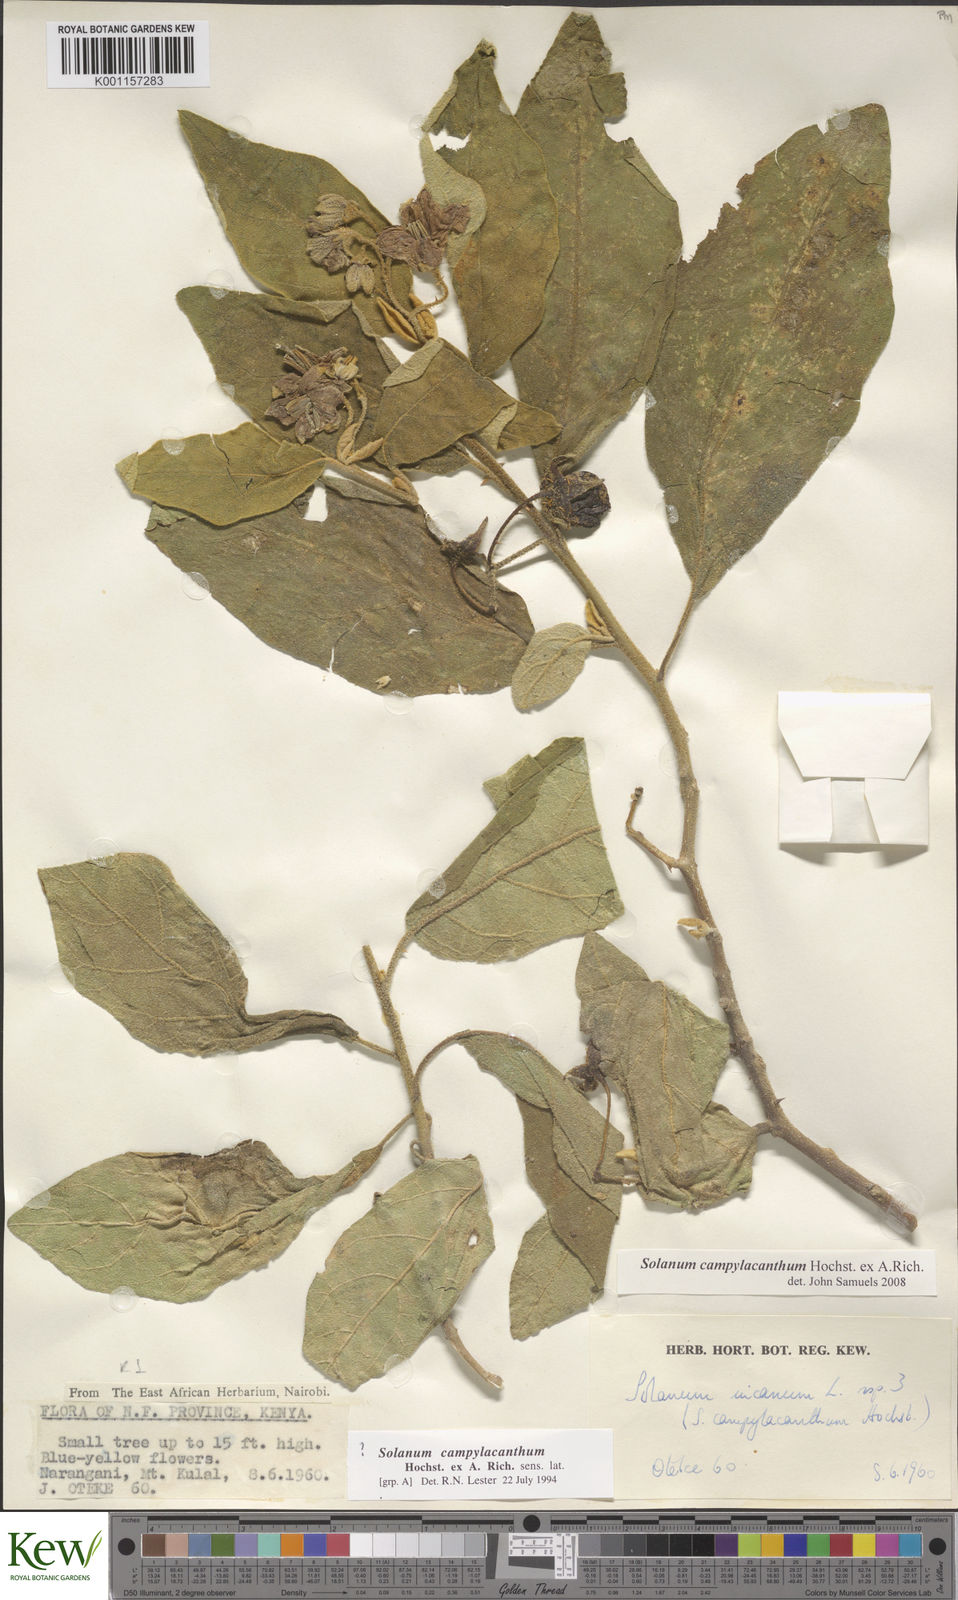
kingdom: Plantae
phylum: Tracheophyta
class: Magnoliopsida
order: Solanales
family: Solanaceae
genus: Solanum
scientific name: Solanum
